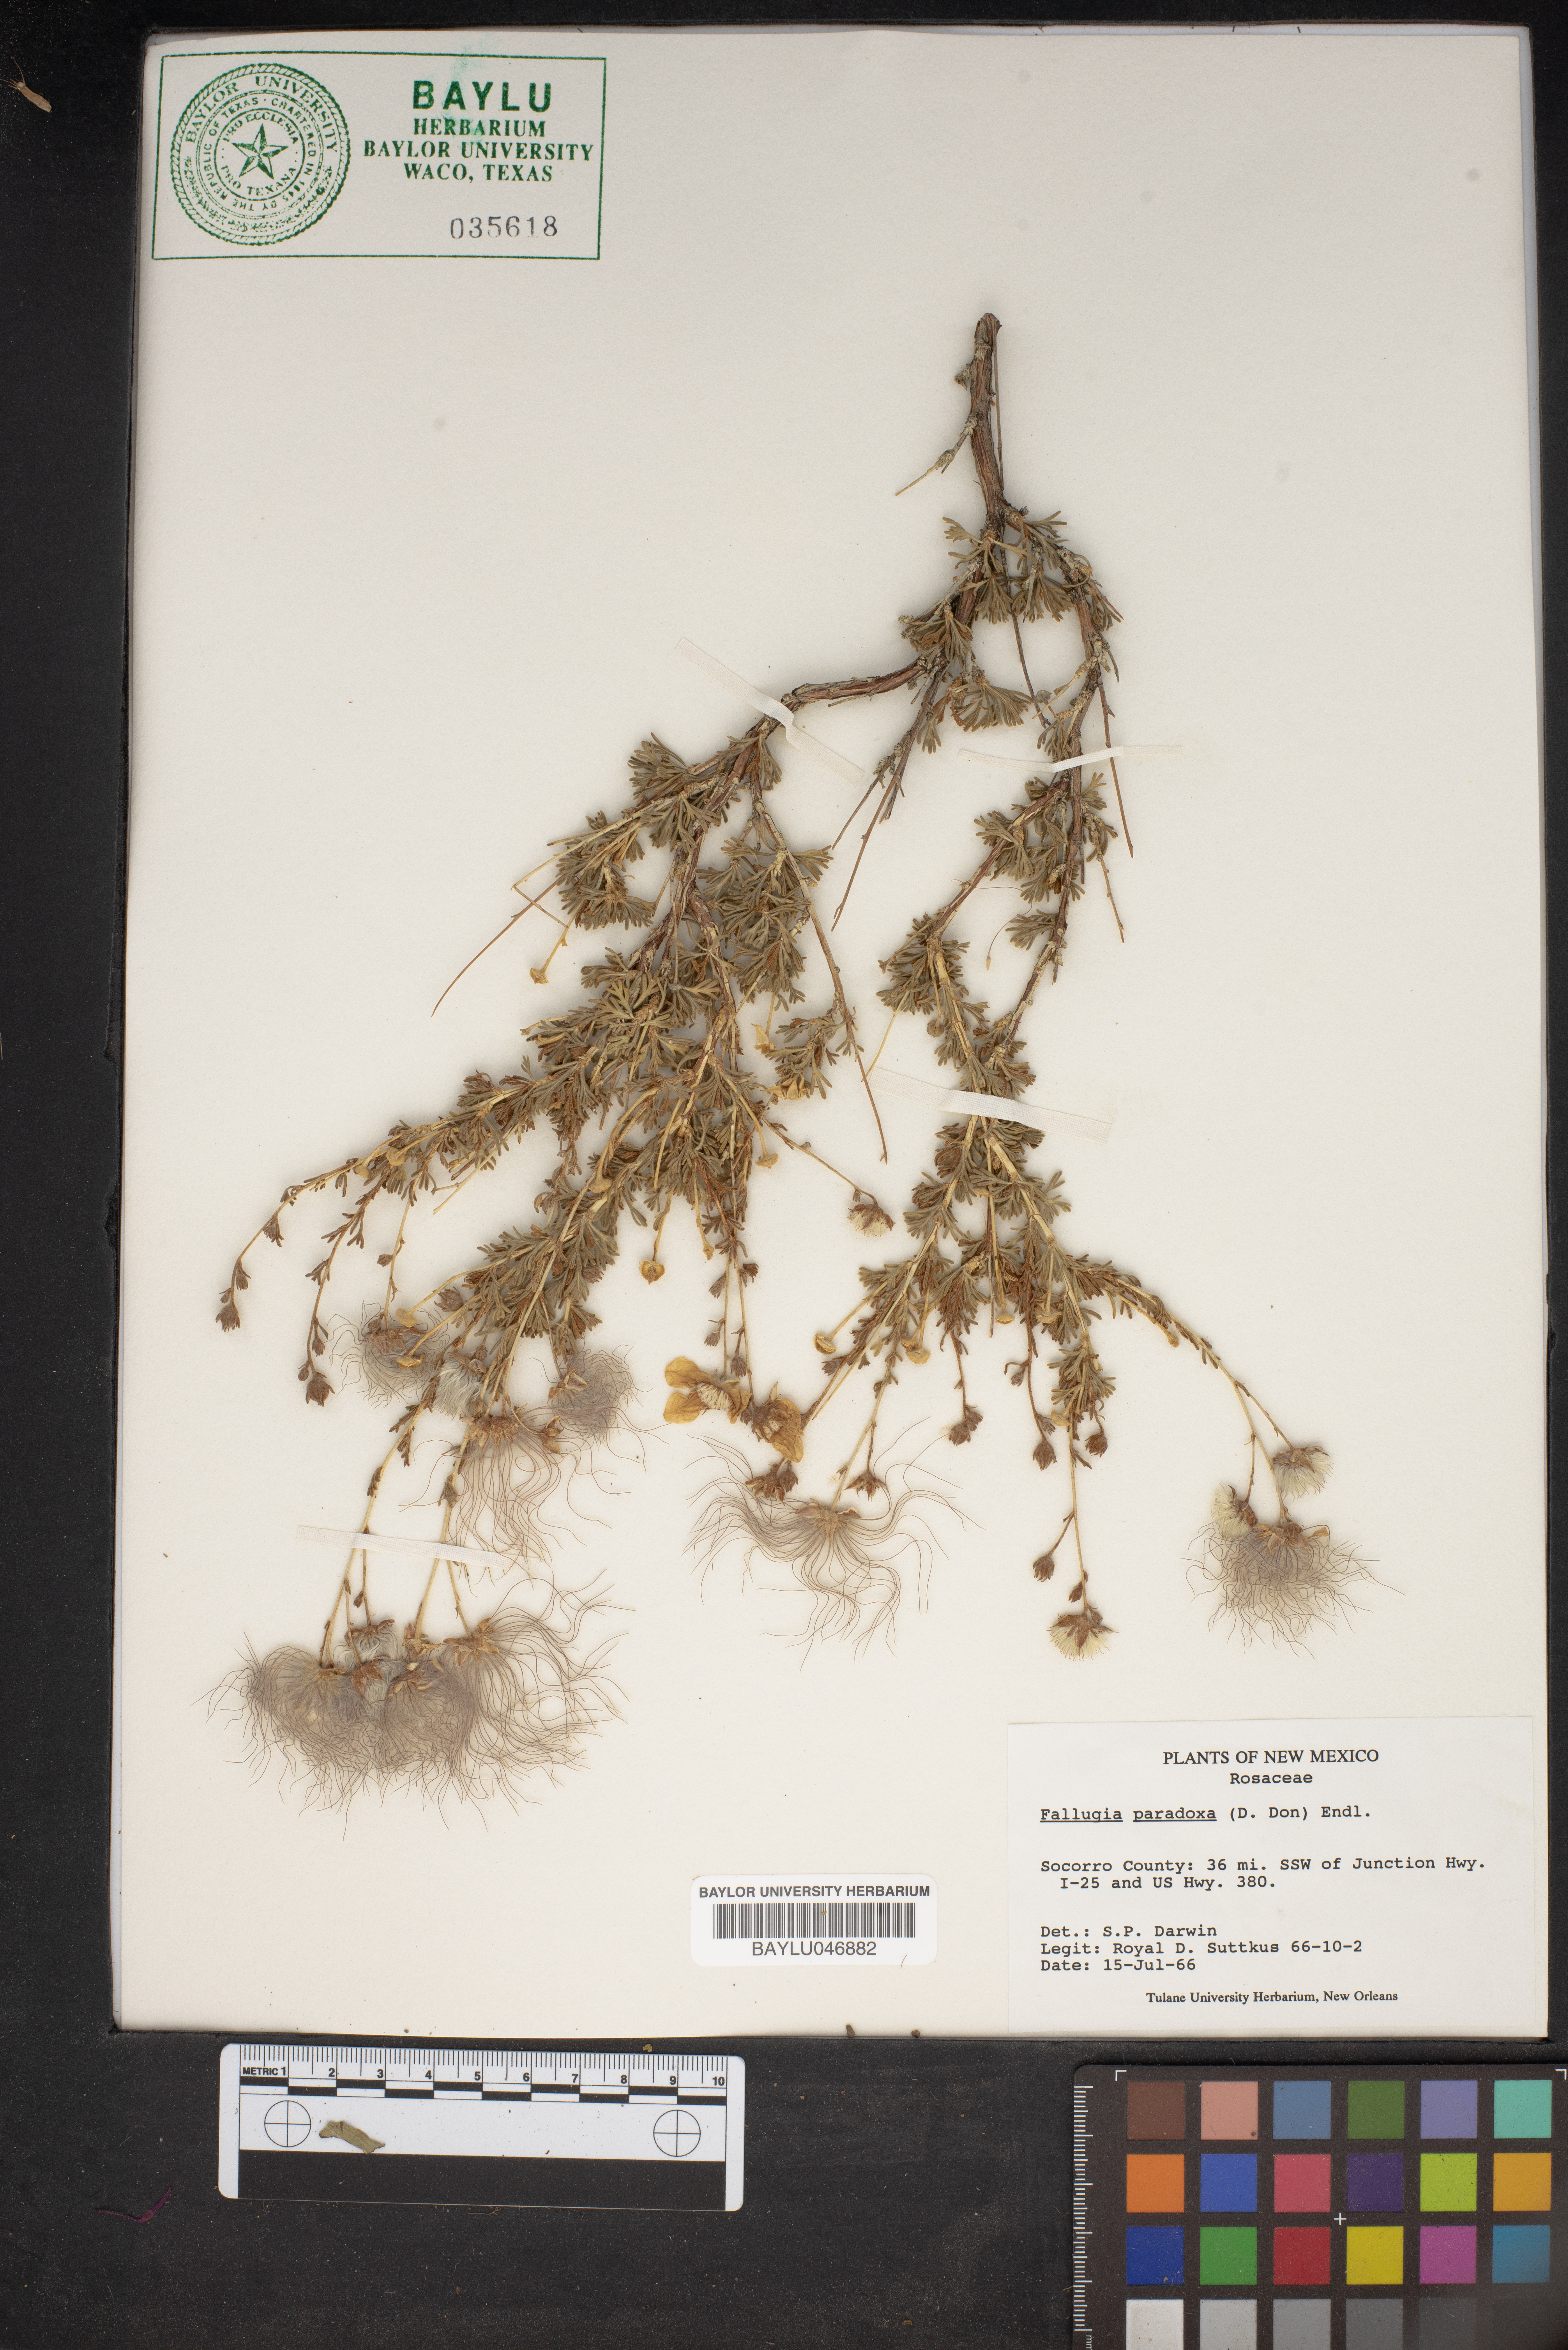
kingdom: Plantae
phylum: Tracheophyta
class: Magnoliopsida
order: Rosales
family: Rosaceae
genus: Fallugia
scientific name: Fallugia paradoxa
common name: Apache-plume
